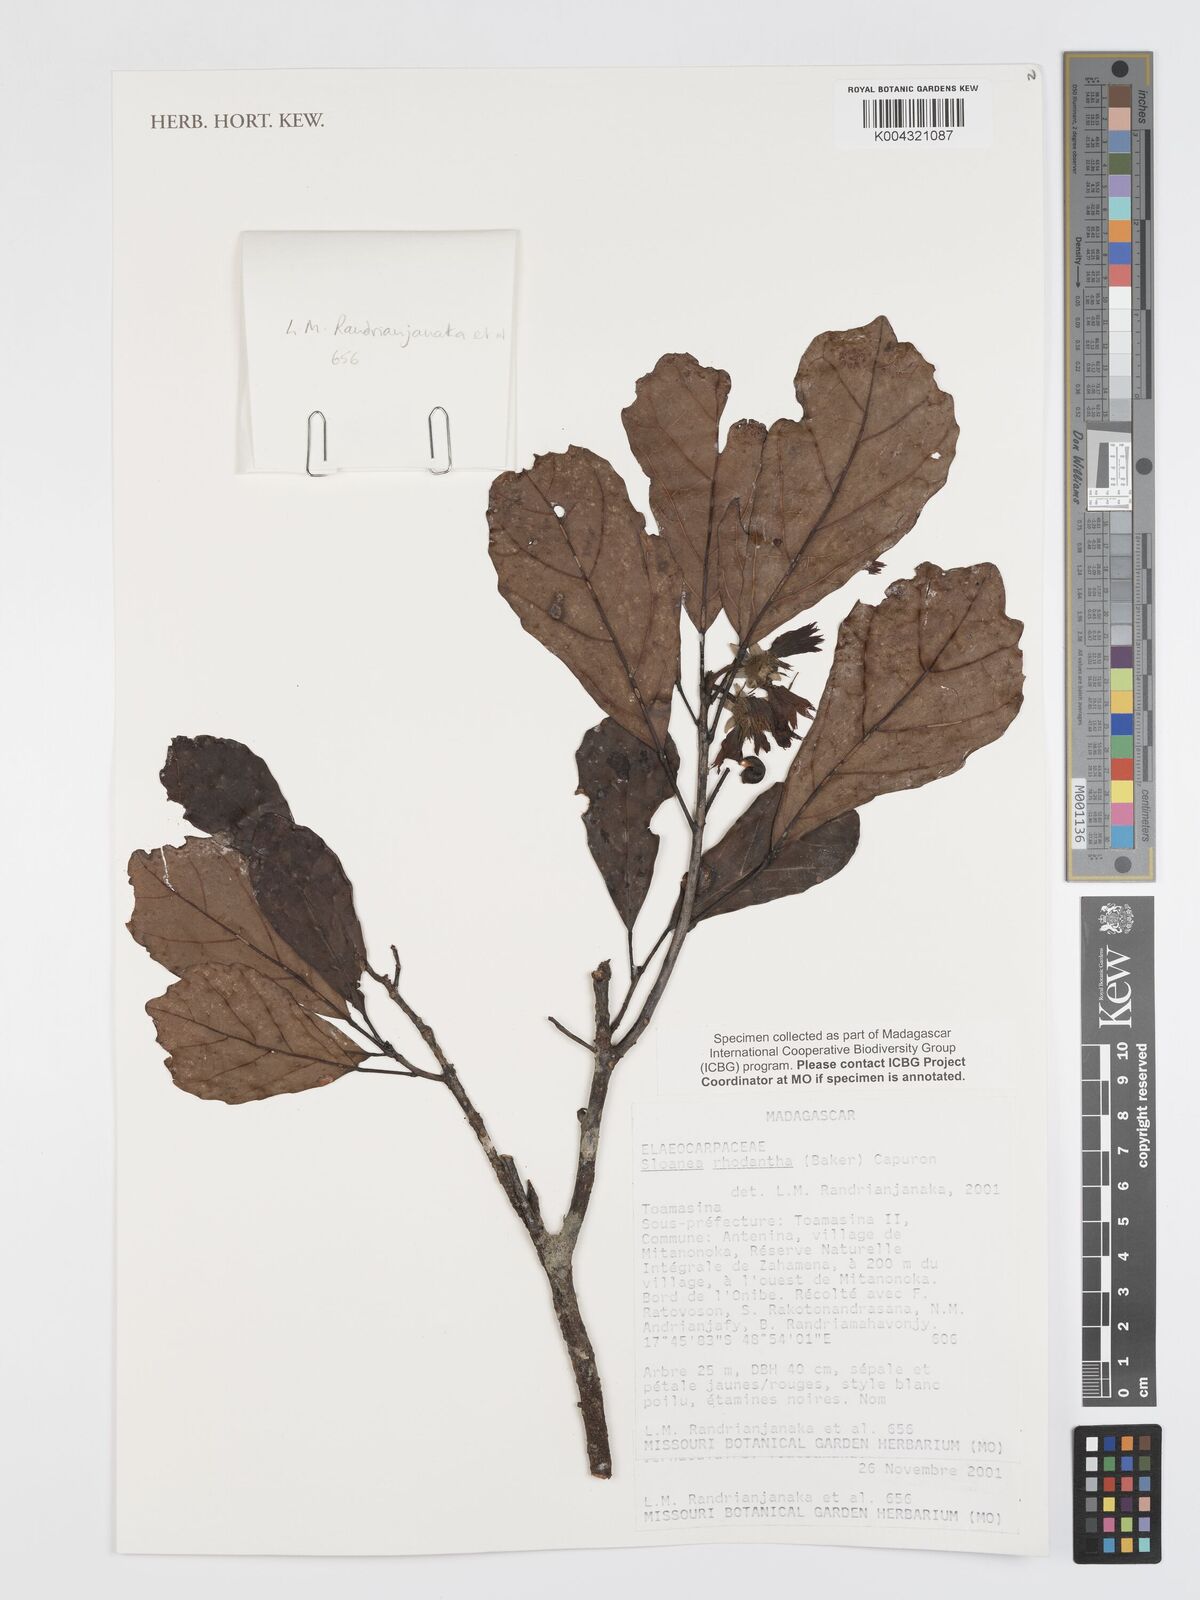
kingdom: Plantae
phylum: Tracheophyta
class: Magnoliopsida
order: Oxalidales
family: Elaeocarpaceae
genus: Sloanea
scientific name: Sloanea rhodantha
